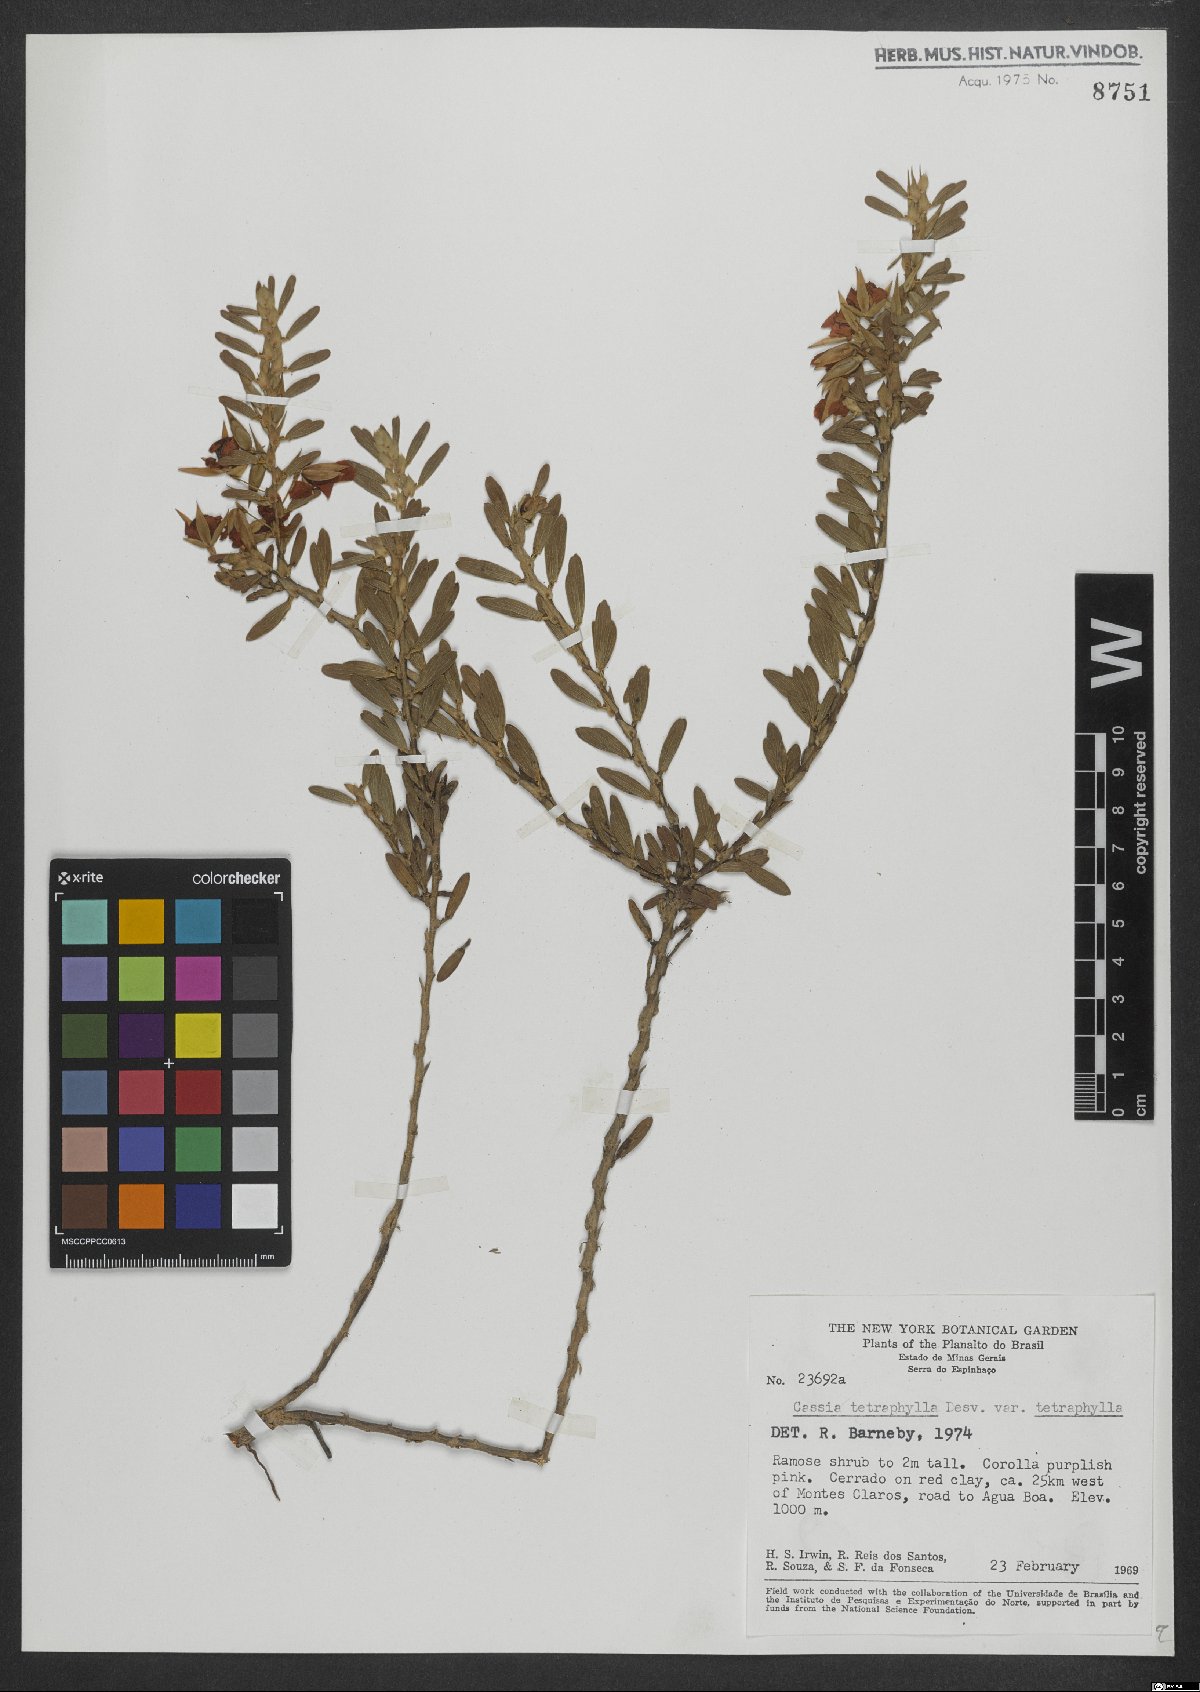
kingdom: Plantae
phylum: Tracheophyta
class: Magnoliopsida
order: Fabales
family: Fabaceae
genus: Chamaecrista
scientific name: Chamaecrista desvauxii
